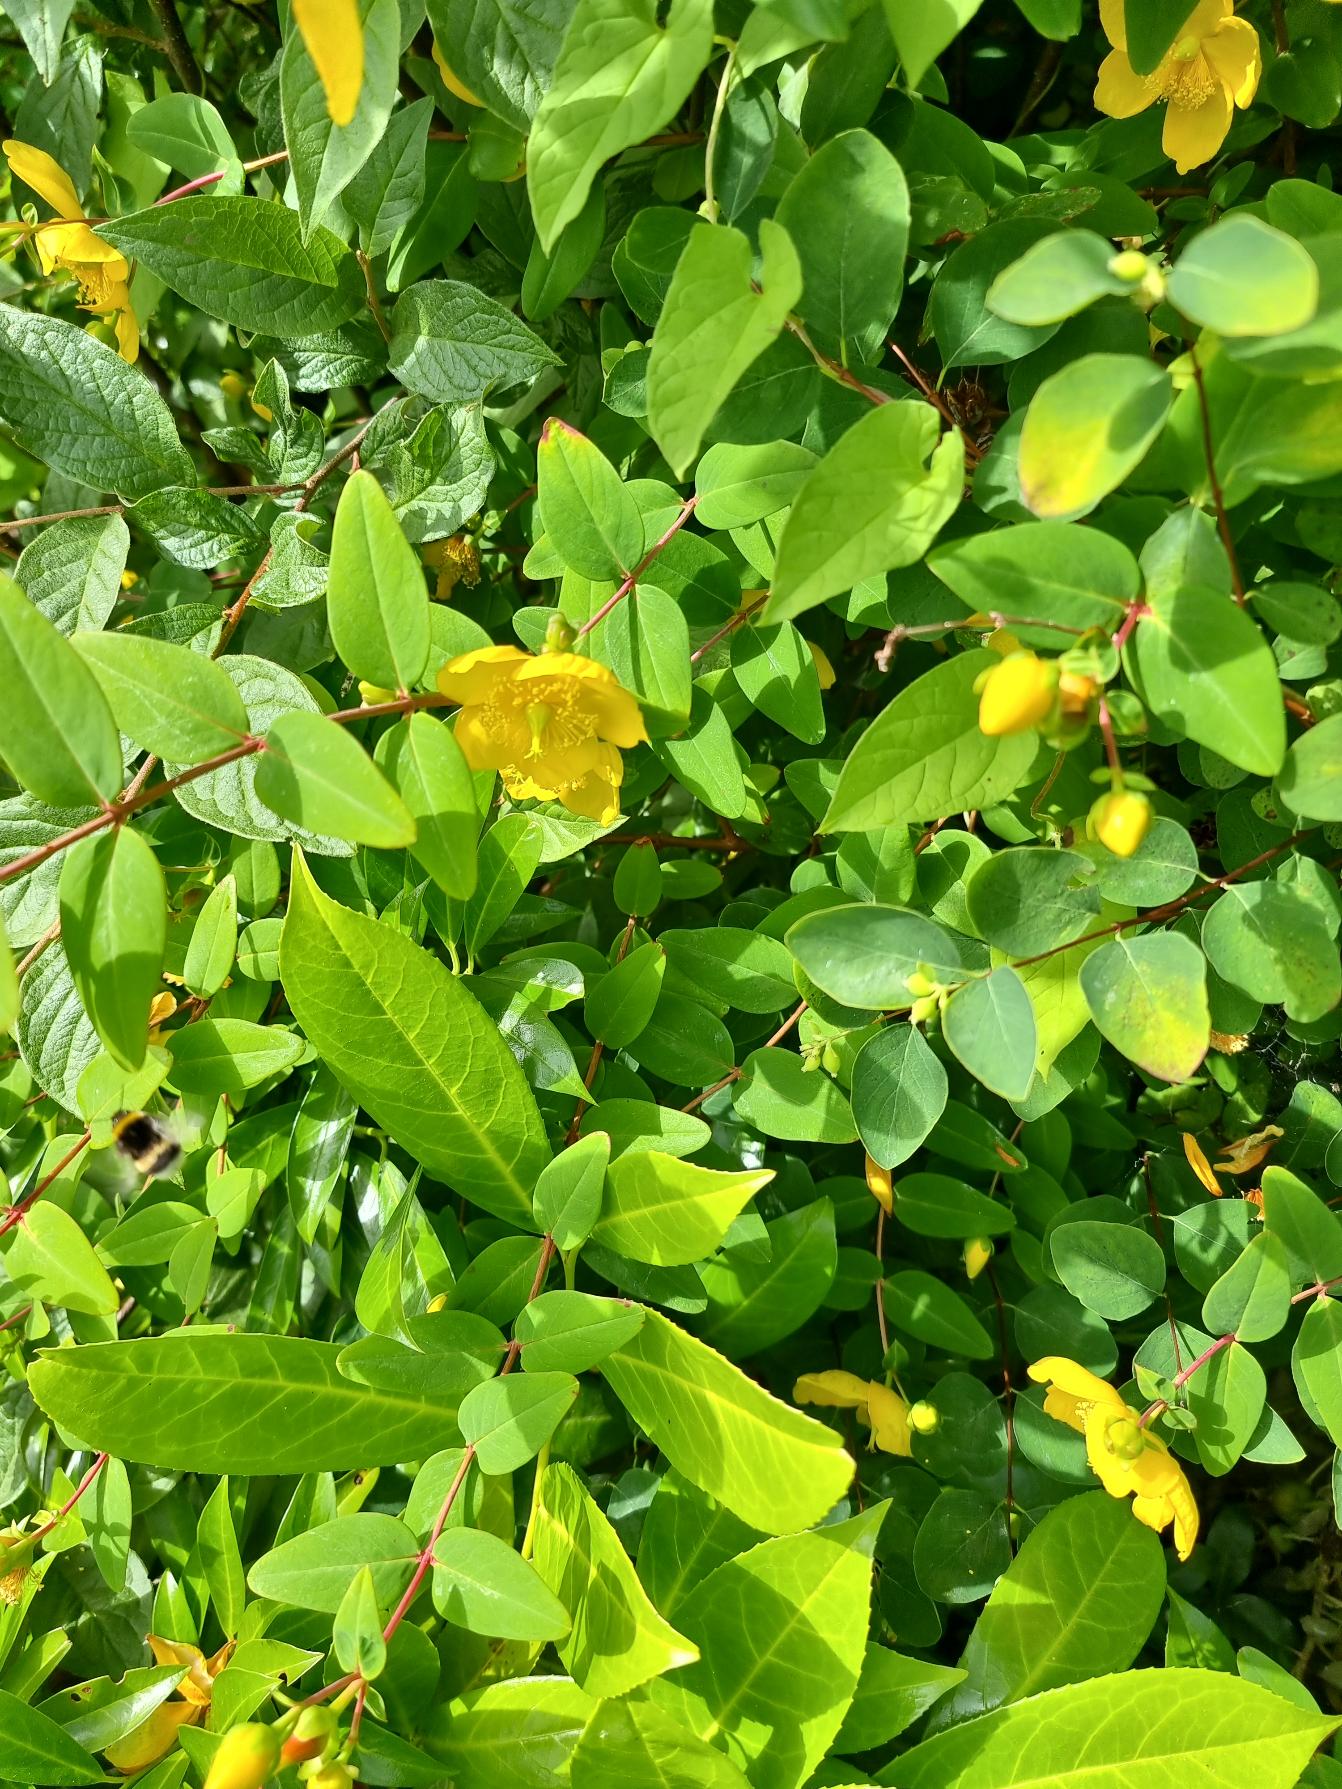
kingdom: Plantae
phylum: Tracheophyta
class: Magnoliopsida
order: Malpighiales
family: Hypericaceae
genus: Hypericum
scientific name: Hypericum
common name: Perikonslægten
